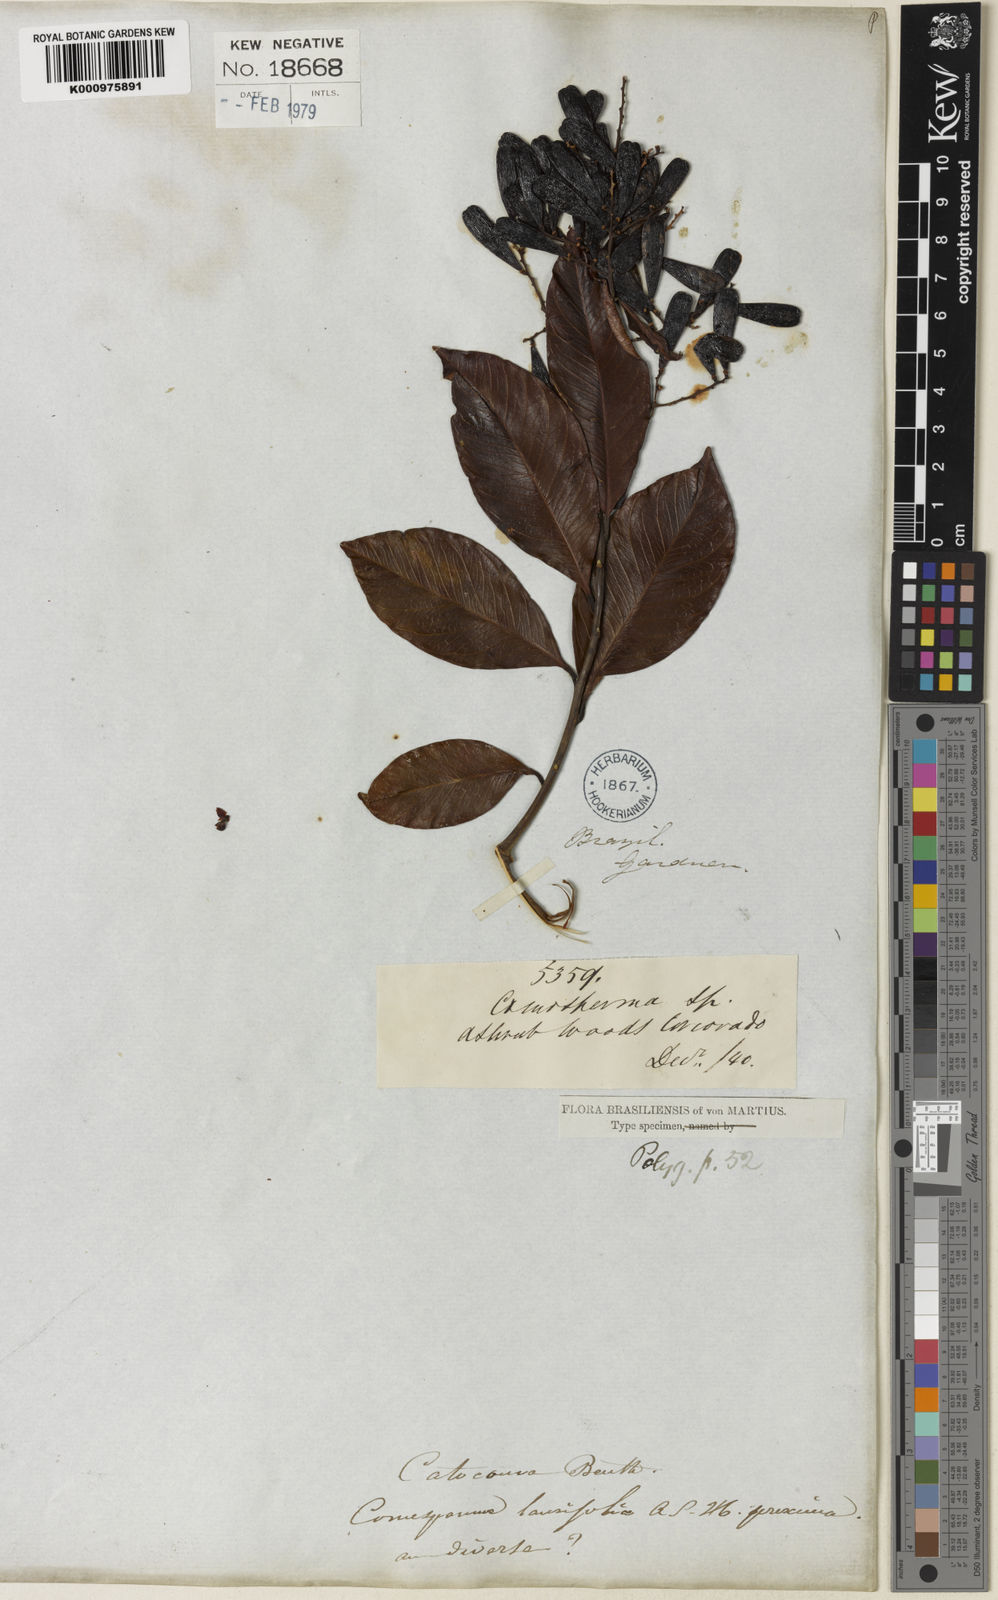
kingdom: Plantae
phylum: Tracheophyta
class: Magnoliopsida
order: Fabales
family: Polygalaceae
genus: Bredemeyera
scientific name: Bredemeyera laurifolia
